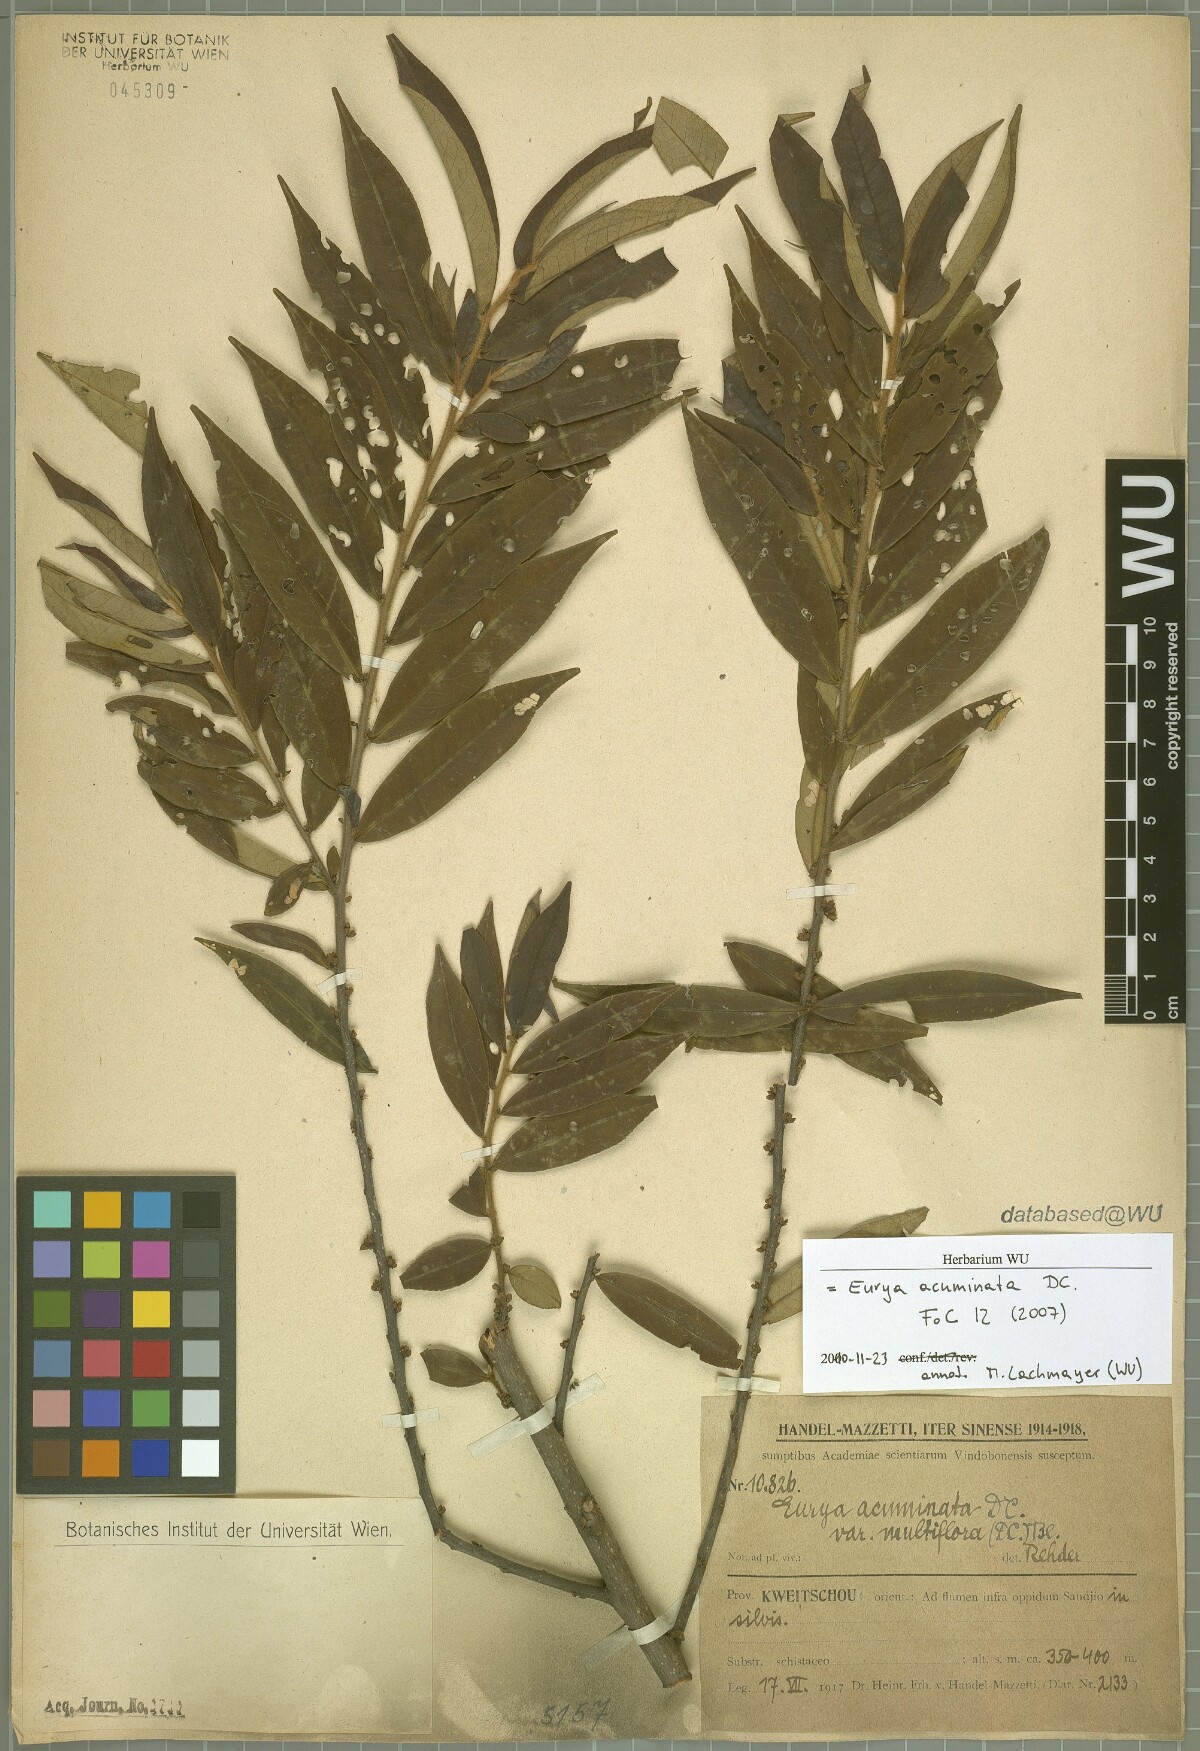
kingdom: Plantae
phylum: Tracheophyta
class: Magnoliopsida
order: Ericales
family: Pentaphylacaceae
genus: Eurya
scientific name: Eurya acuminata
